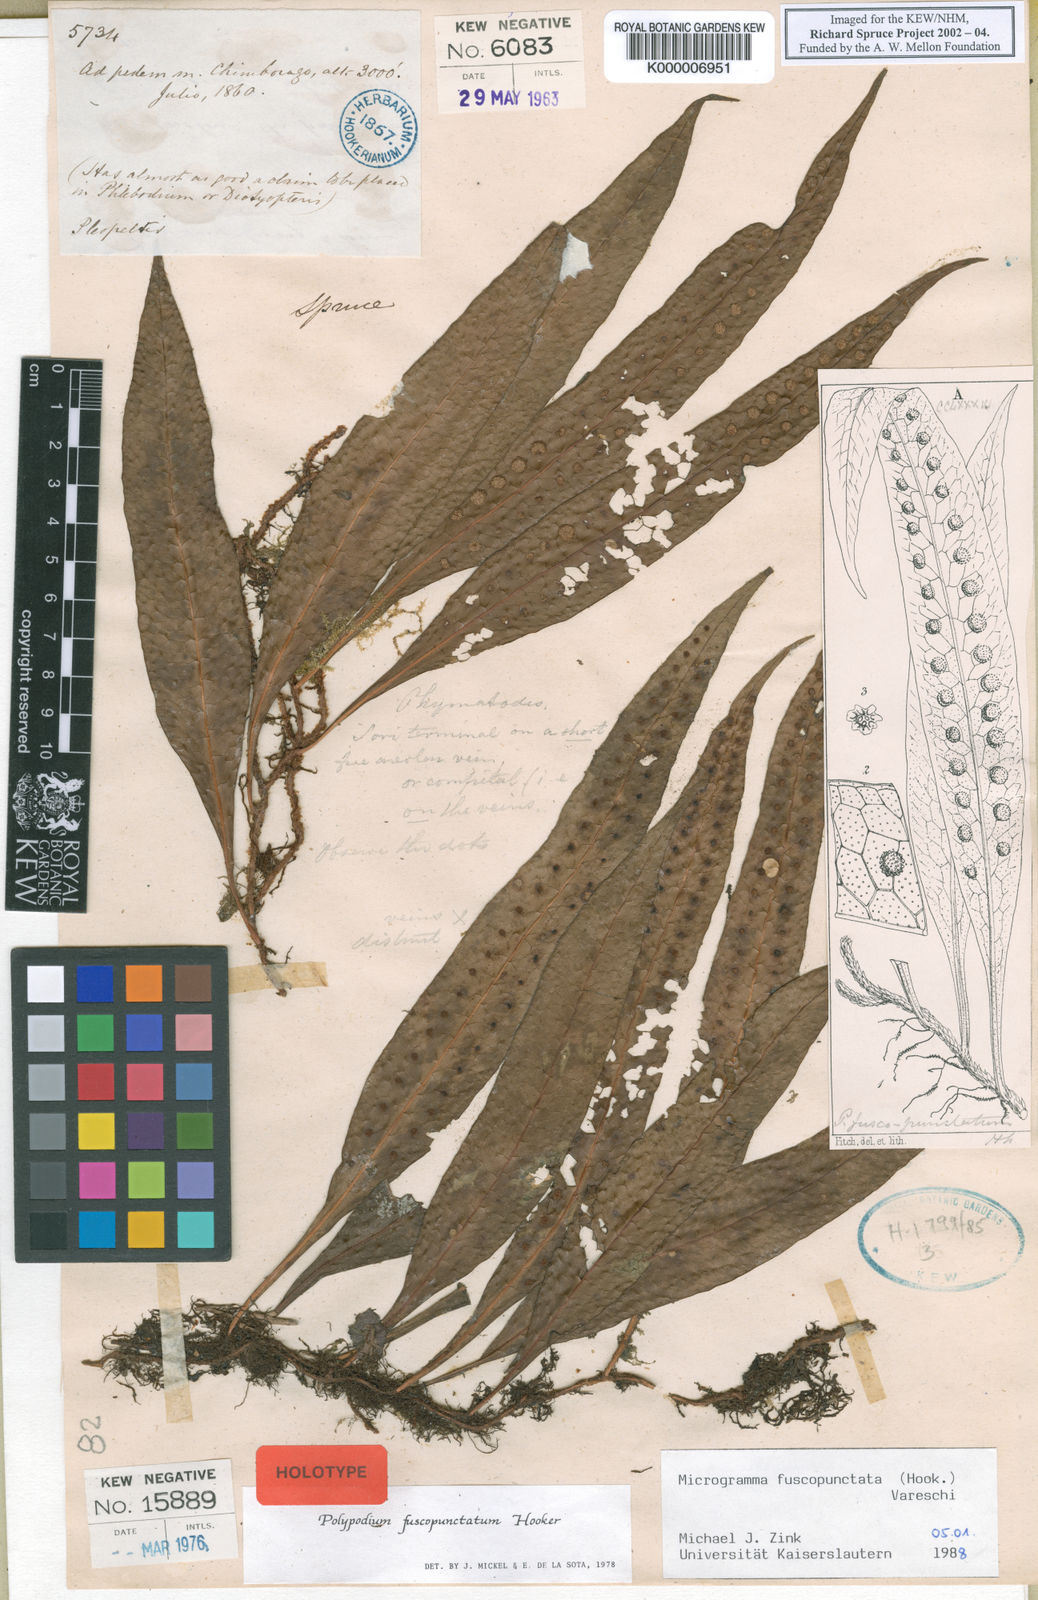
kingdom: Plantae
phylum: Tracheophyta
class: Polypodiopsida
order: Polypodiales
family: Polypodiaceae
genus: Microgramma
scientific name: Microgramma dictyophylla
